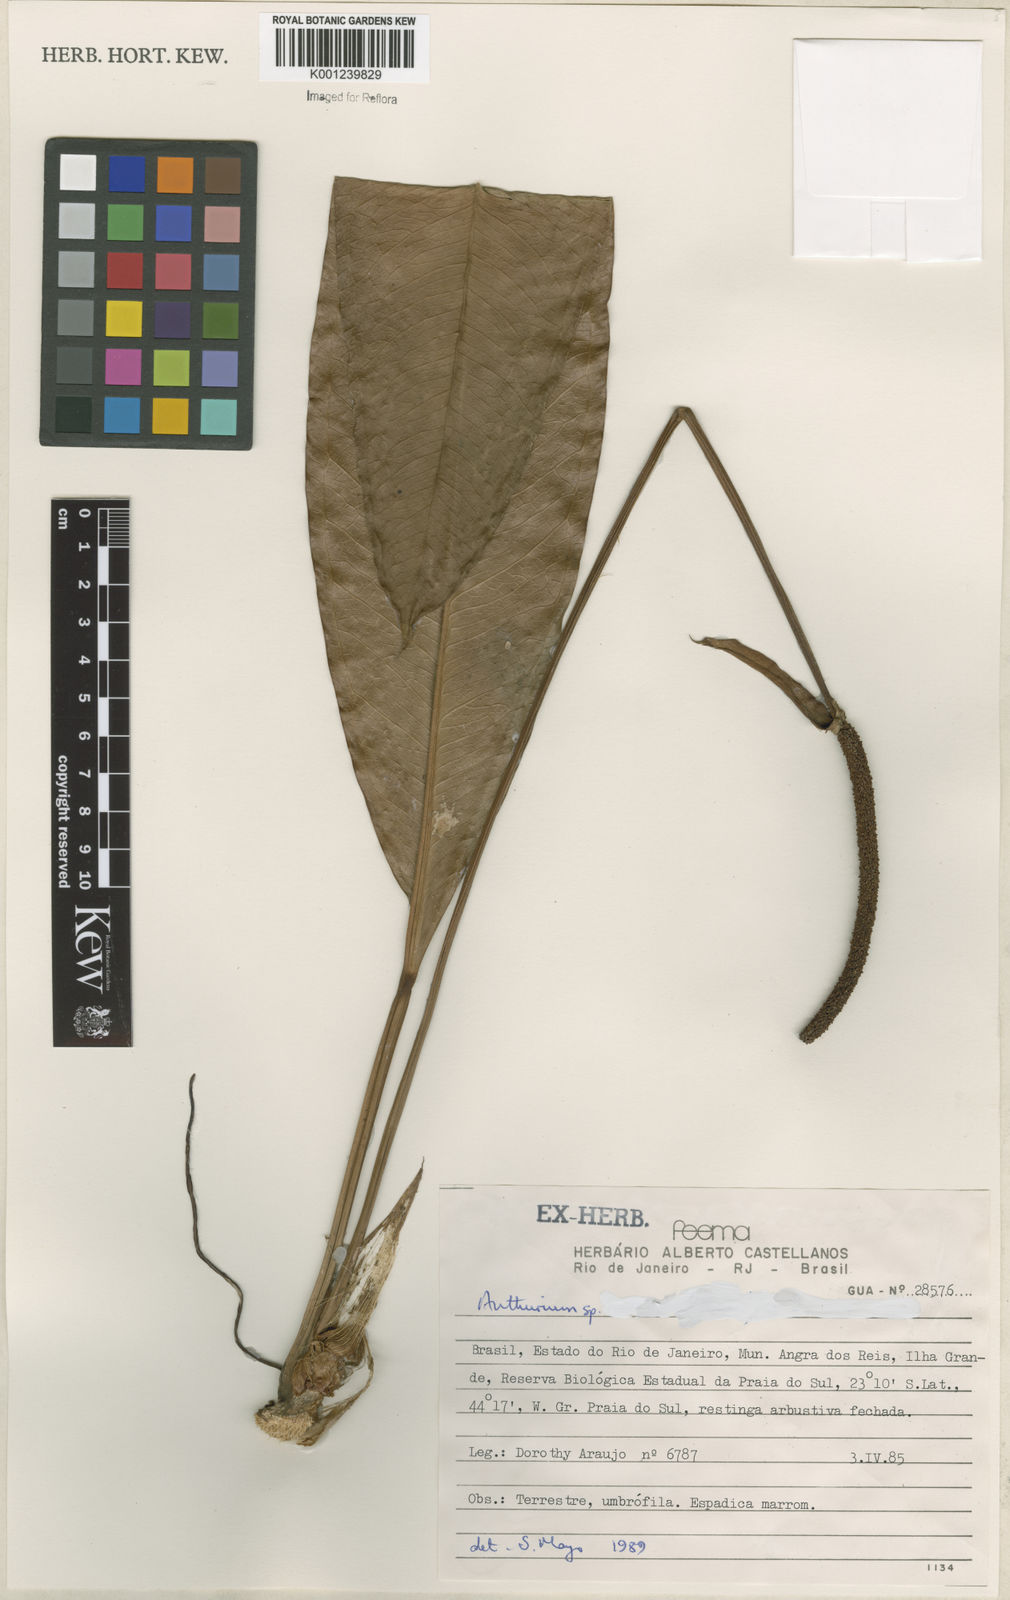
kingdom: Plantae
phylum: Tracheophyta
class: Liliopsida
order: Alismatales
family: Araceae
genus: Anthurium
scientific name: Anthurium
